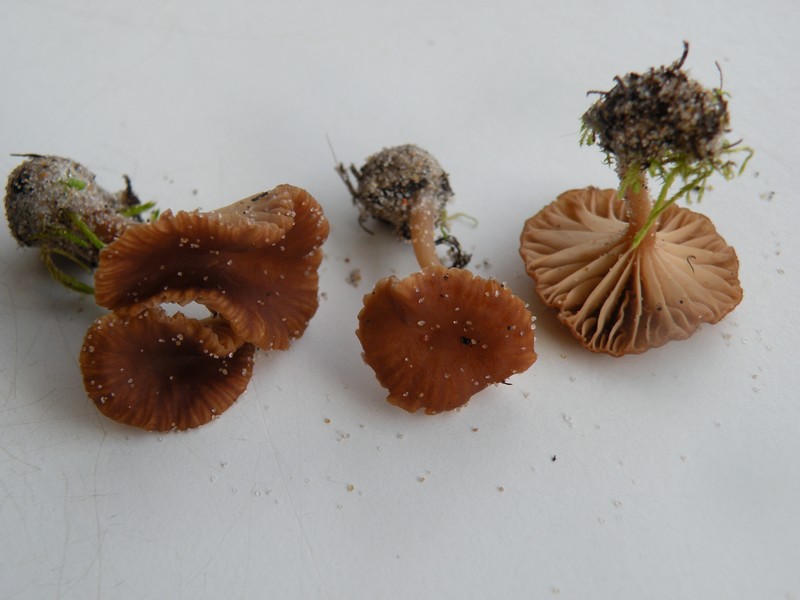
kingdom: Fungi
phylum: Basidiomycota
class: Agaricomycetes
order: Agaricales
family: Tricholomataceae
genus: Omphalina
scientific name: Omphalina pyxidata
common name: rødbrun navlehat
